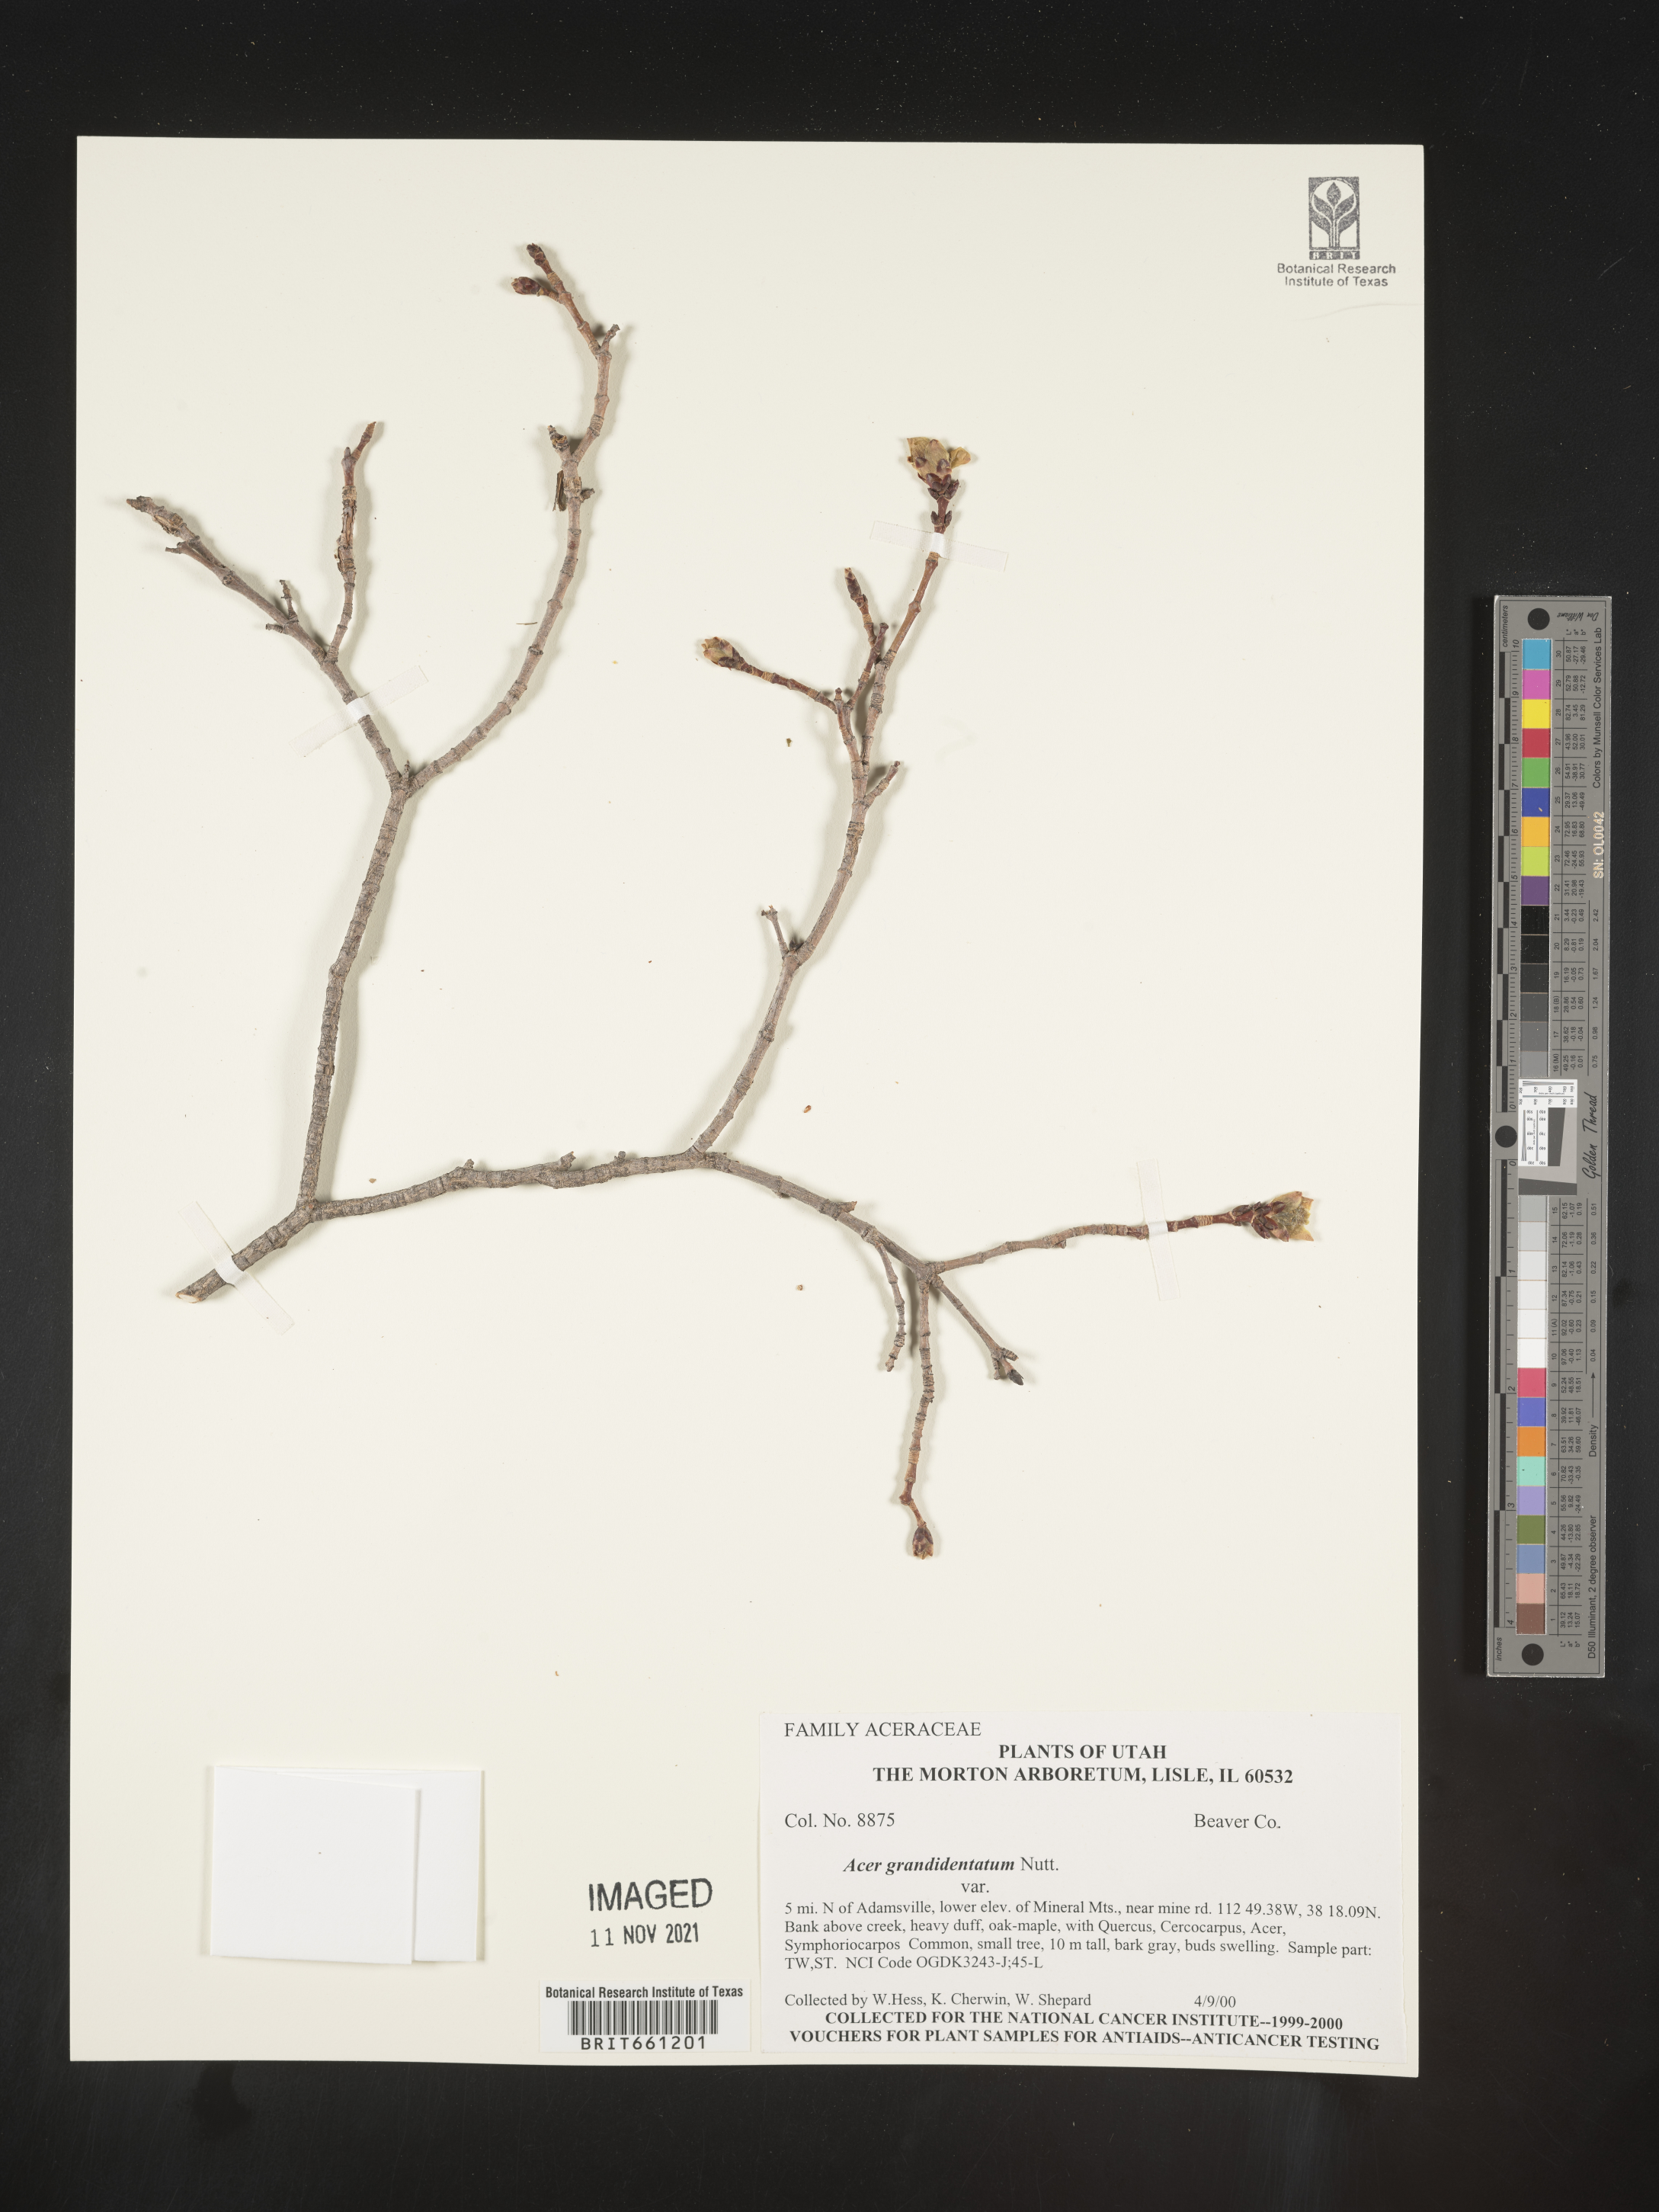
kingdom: Plantae
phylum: Tracheophyta
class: Magnoliopsida
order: Sapindales
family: Sapindaceae
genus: Acer
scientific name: Acer grandidentatum
